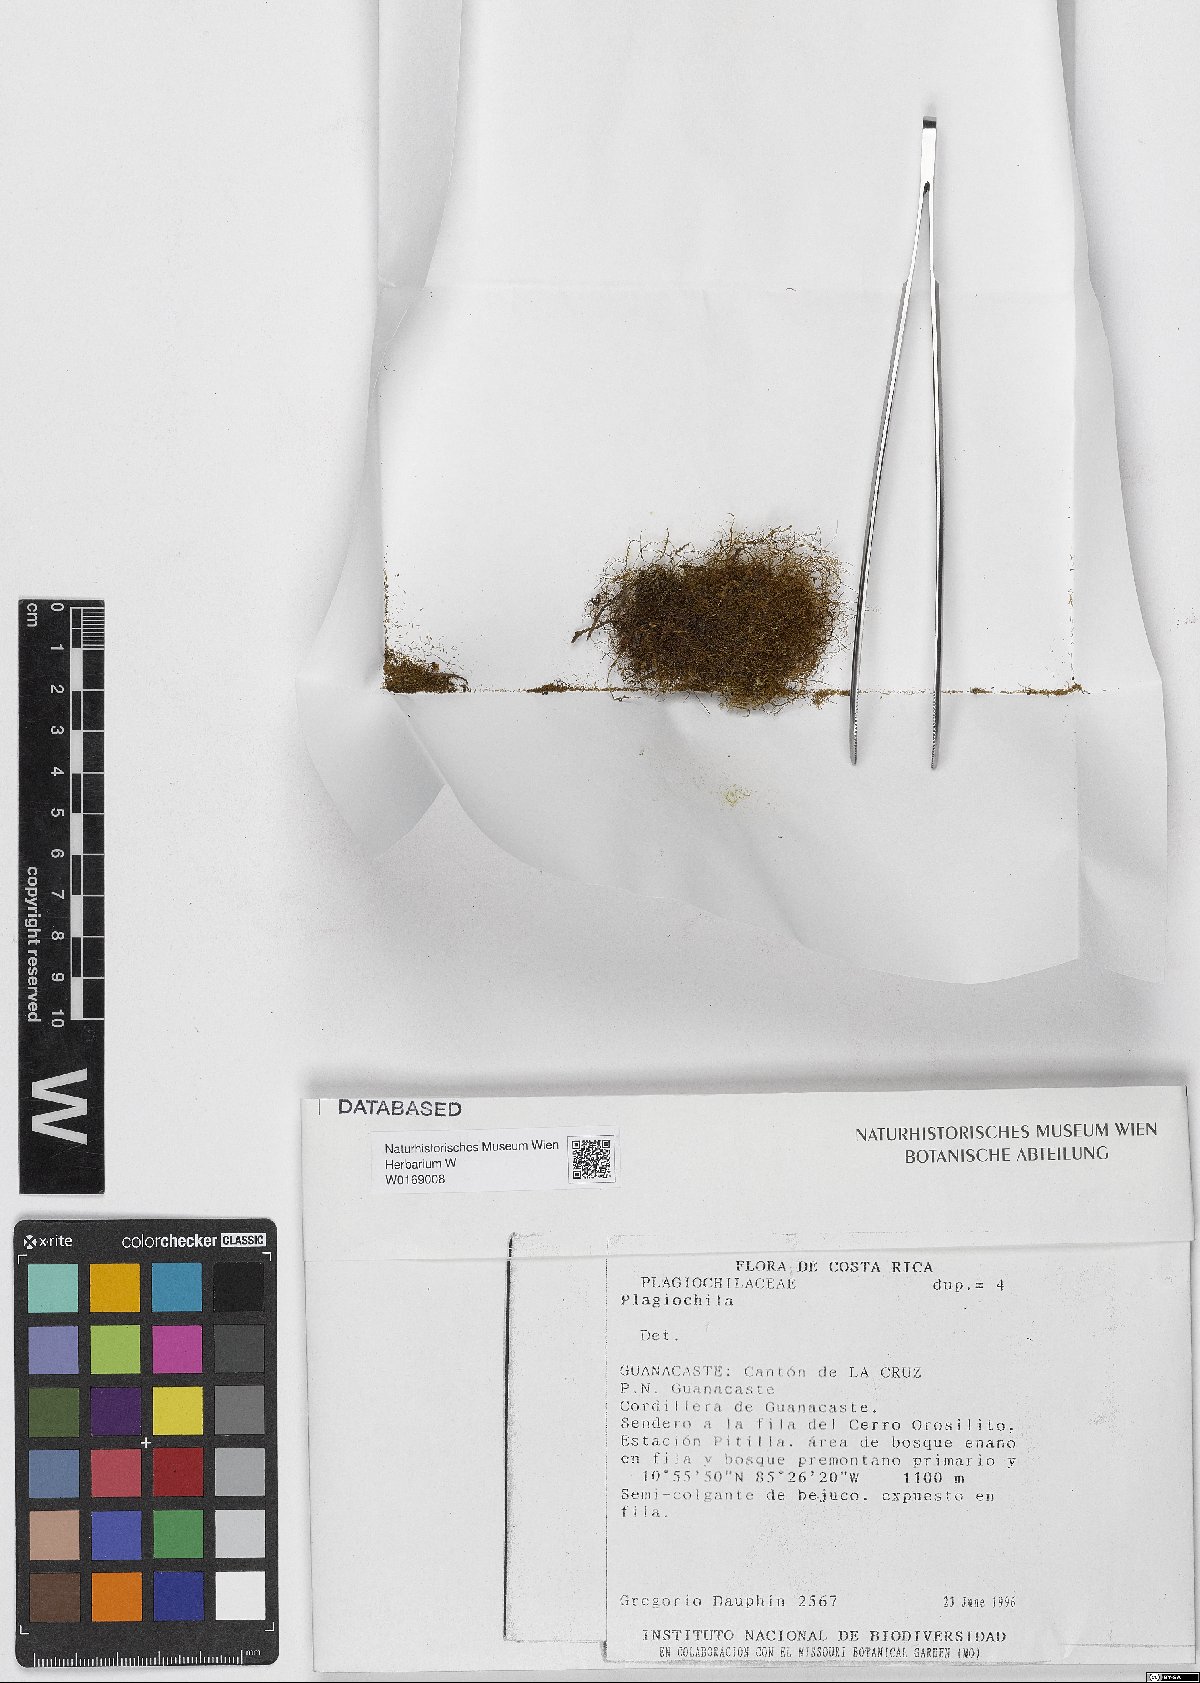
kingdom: Plantae
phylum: Marchantiophyta
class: Jungermanniopsida
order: Jungermanniales
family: Plagiochilaceae
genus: Plagiochila
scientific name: Plagiochila
